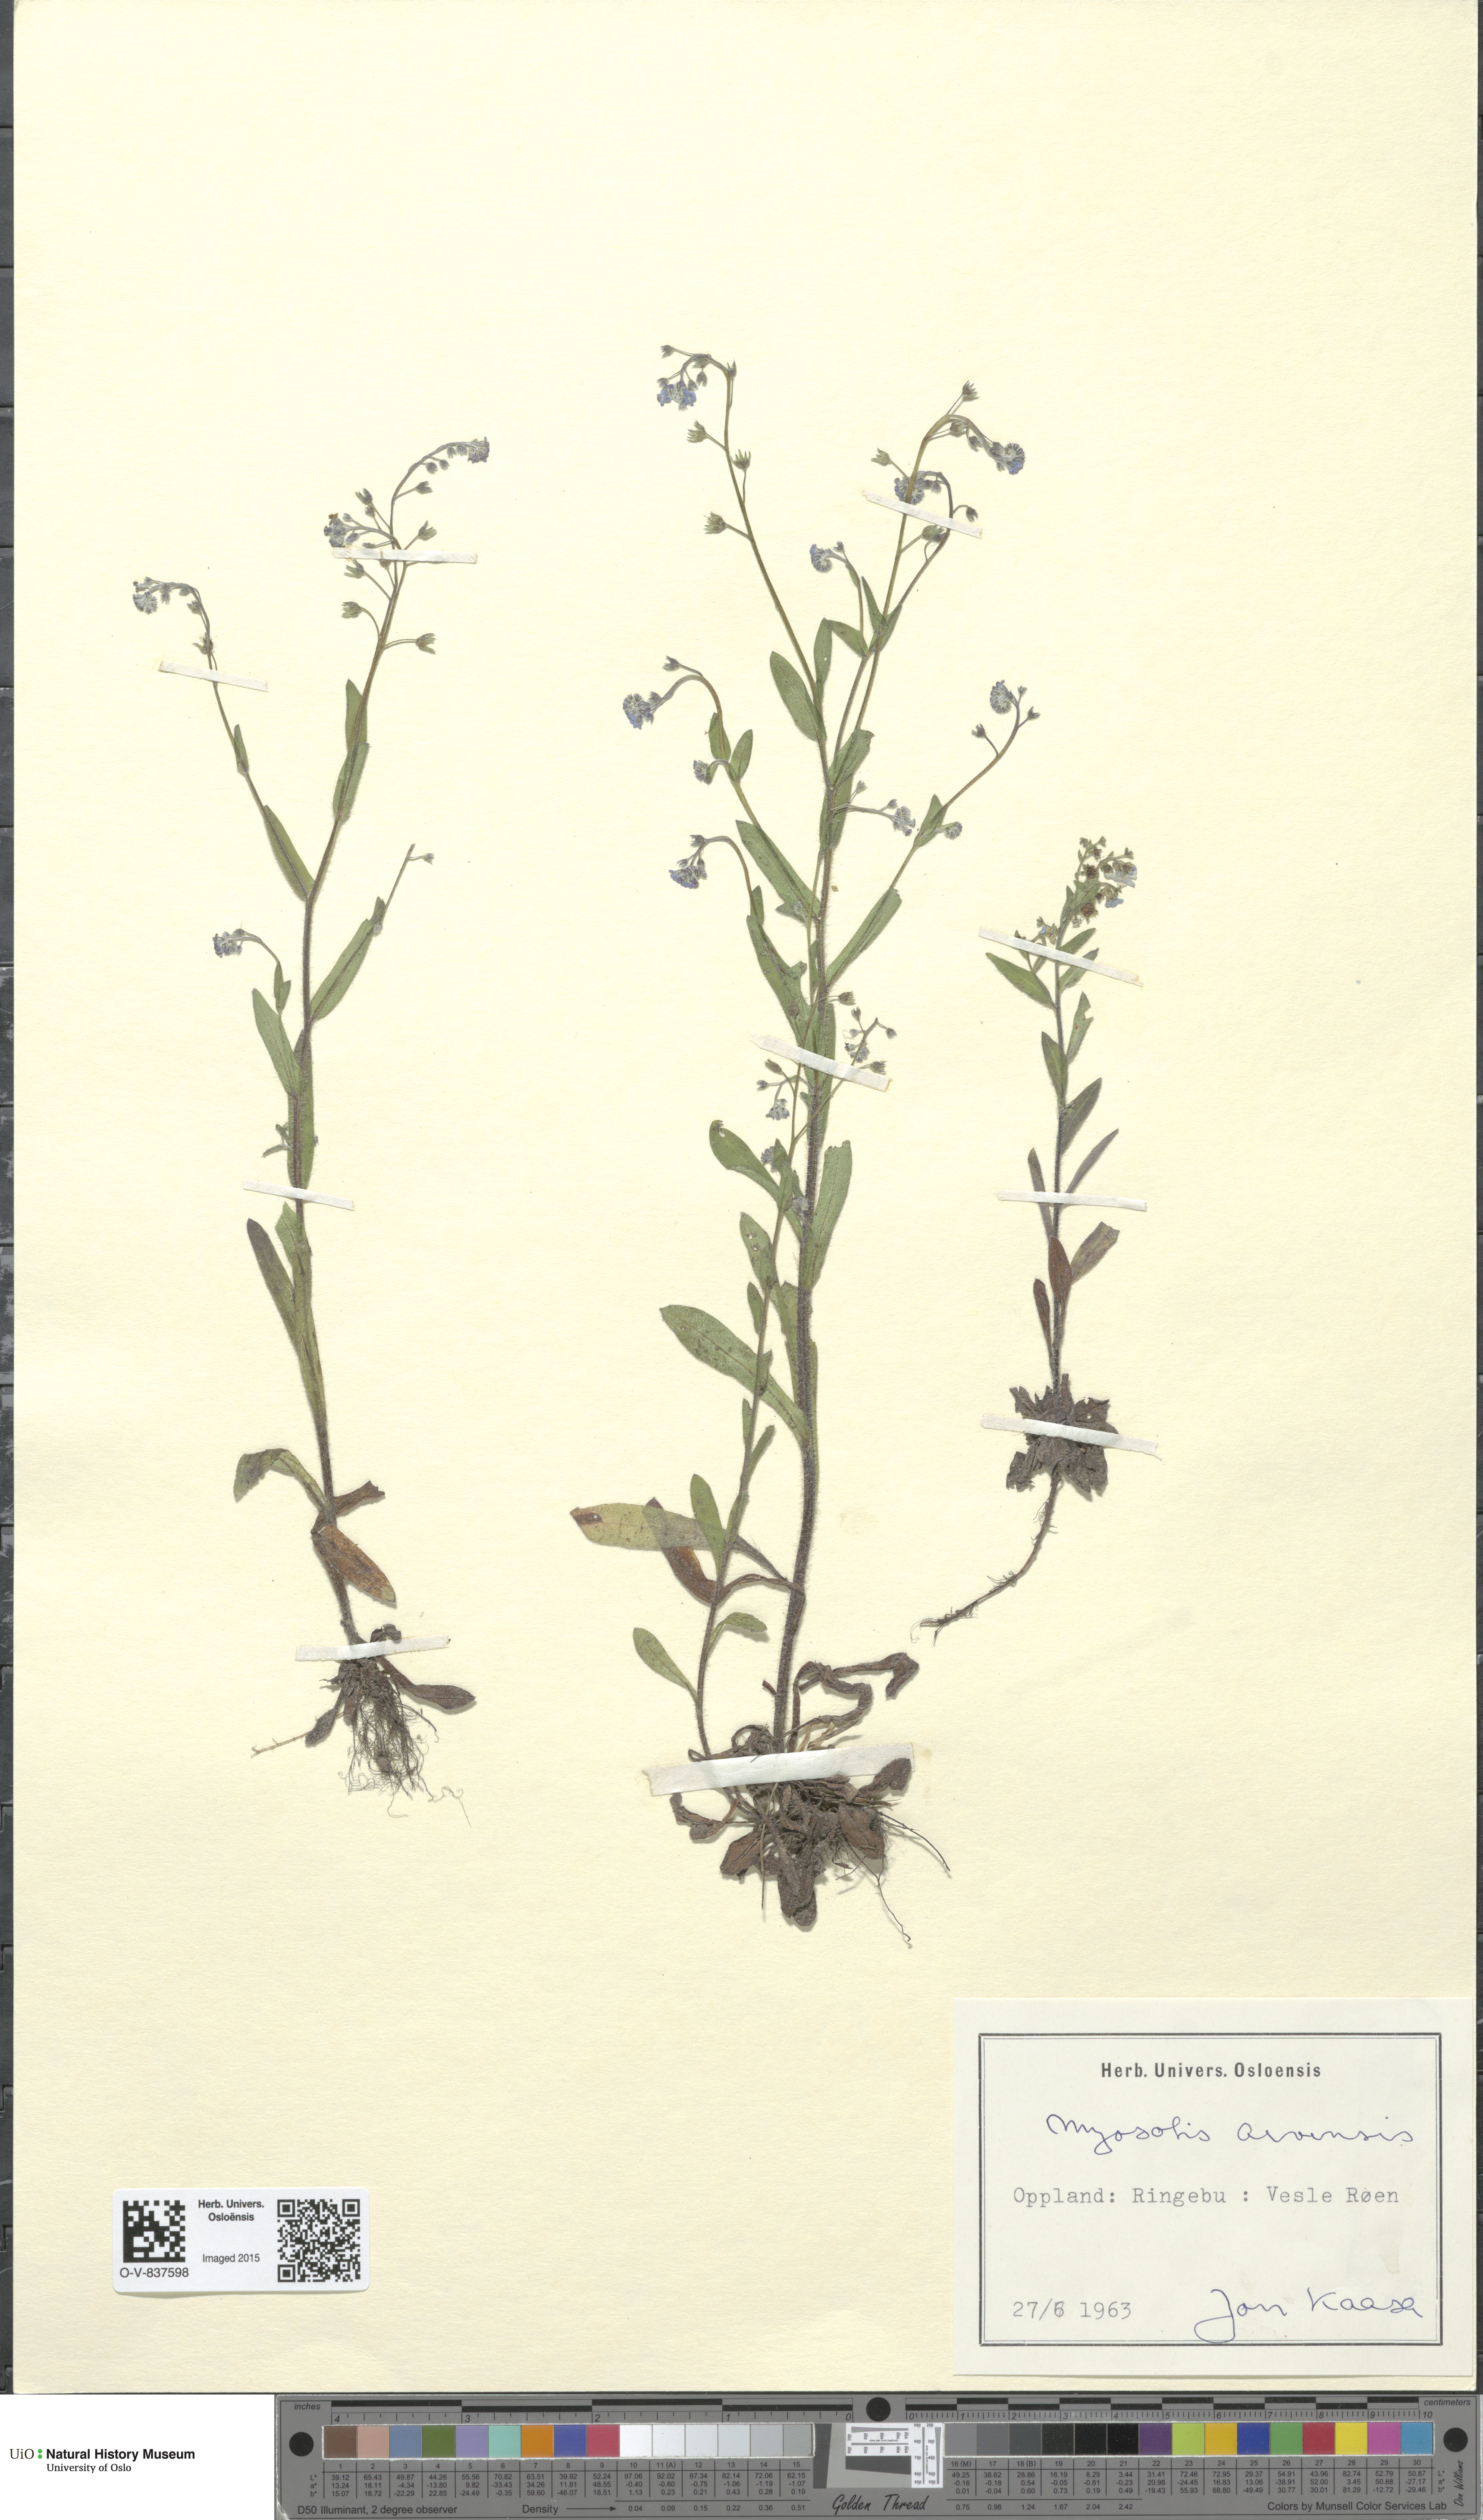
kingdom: Plantae
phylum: Tracheophyta
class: Magnoliopsida
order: Boraginales
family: Boraginaceae
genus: Myosotis
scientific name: Myosotis arvensis
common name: Field forget-me-not
